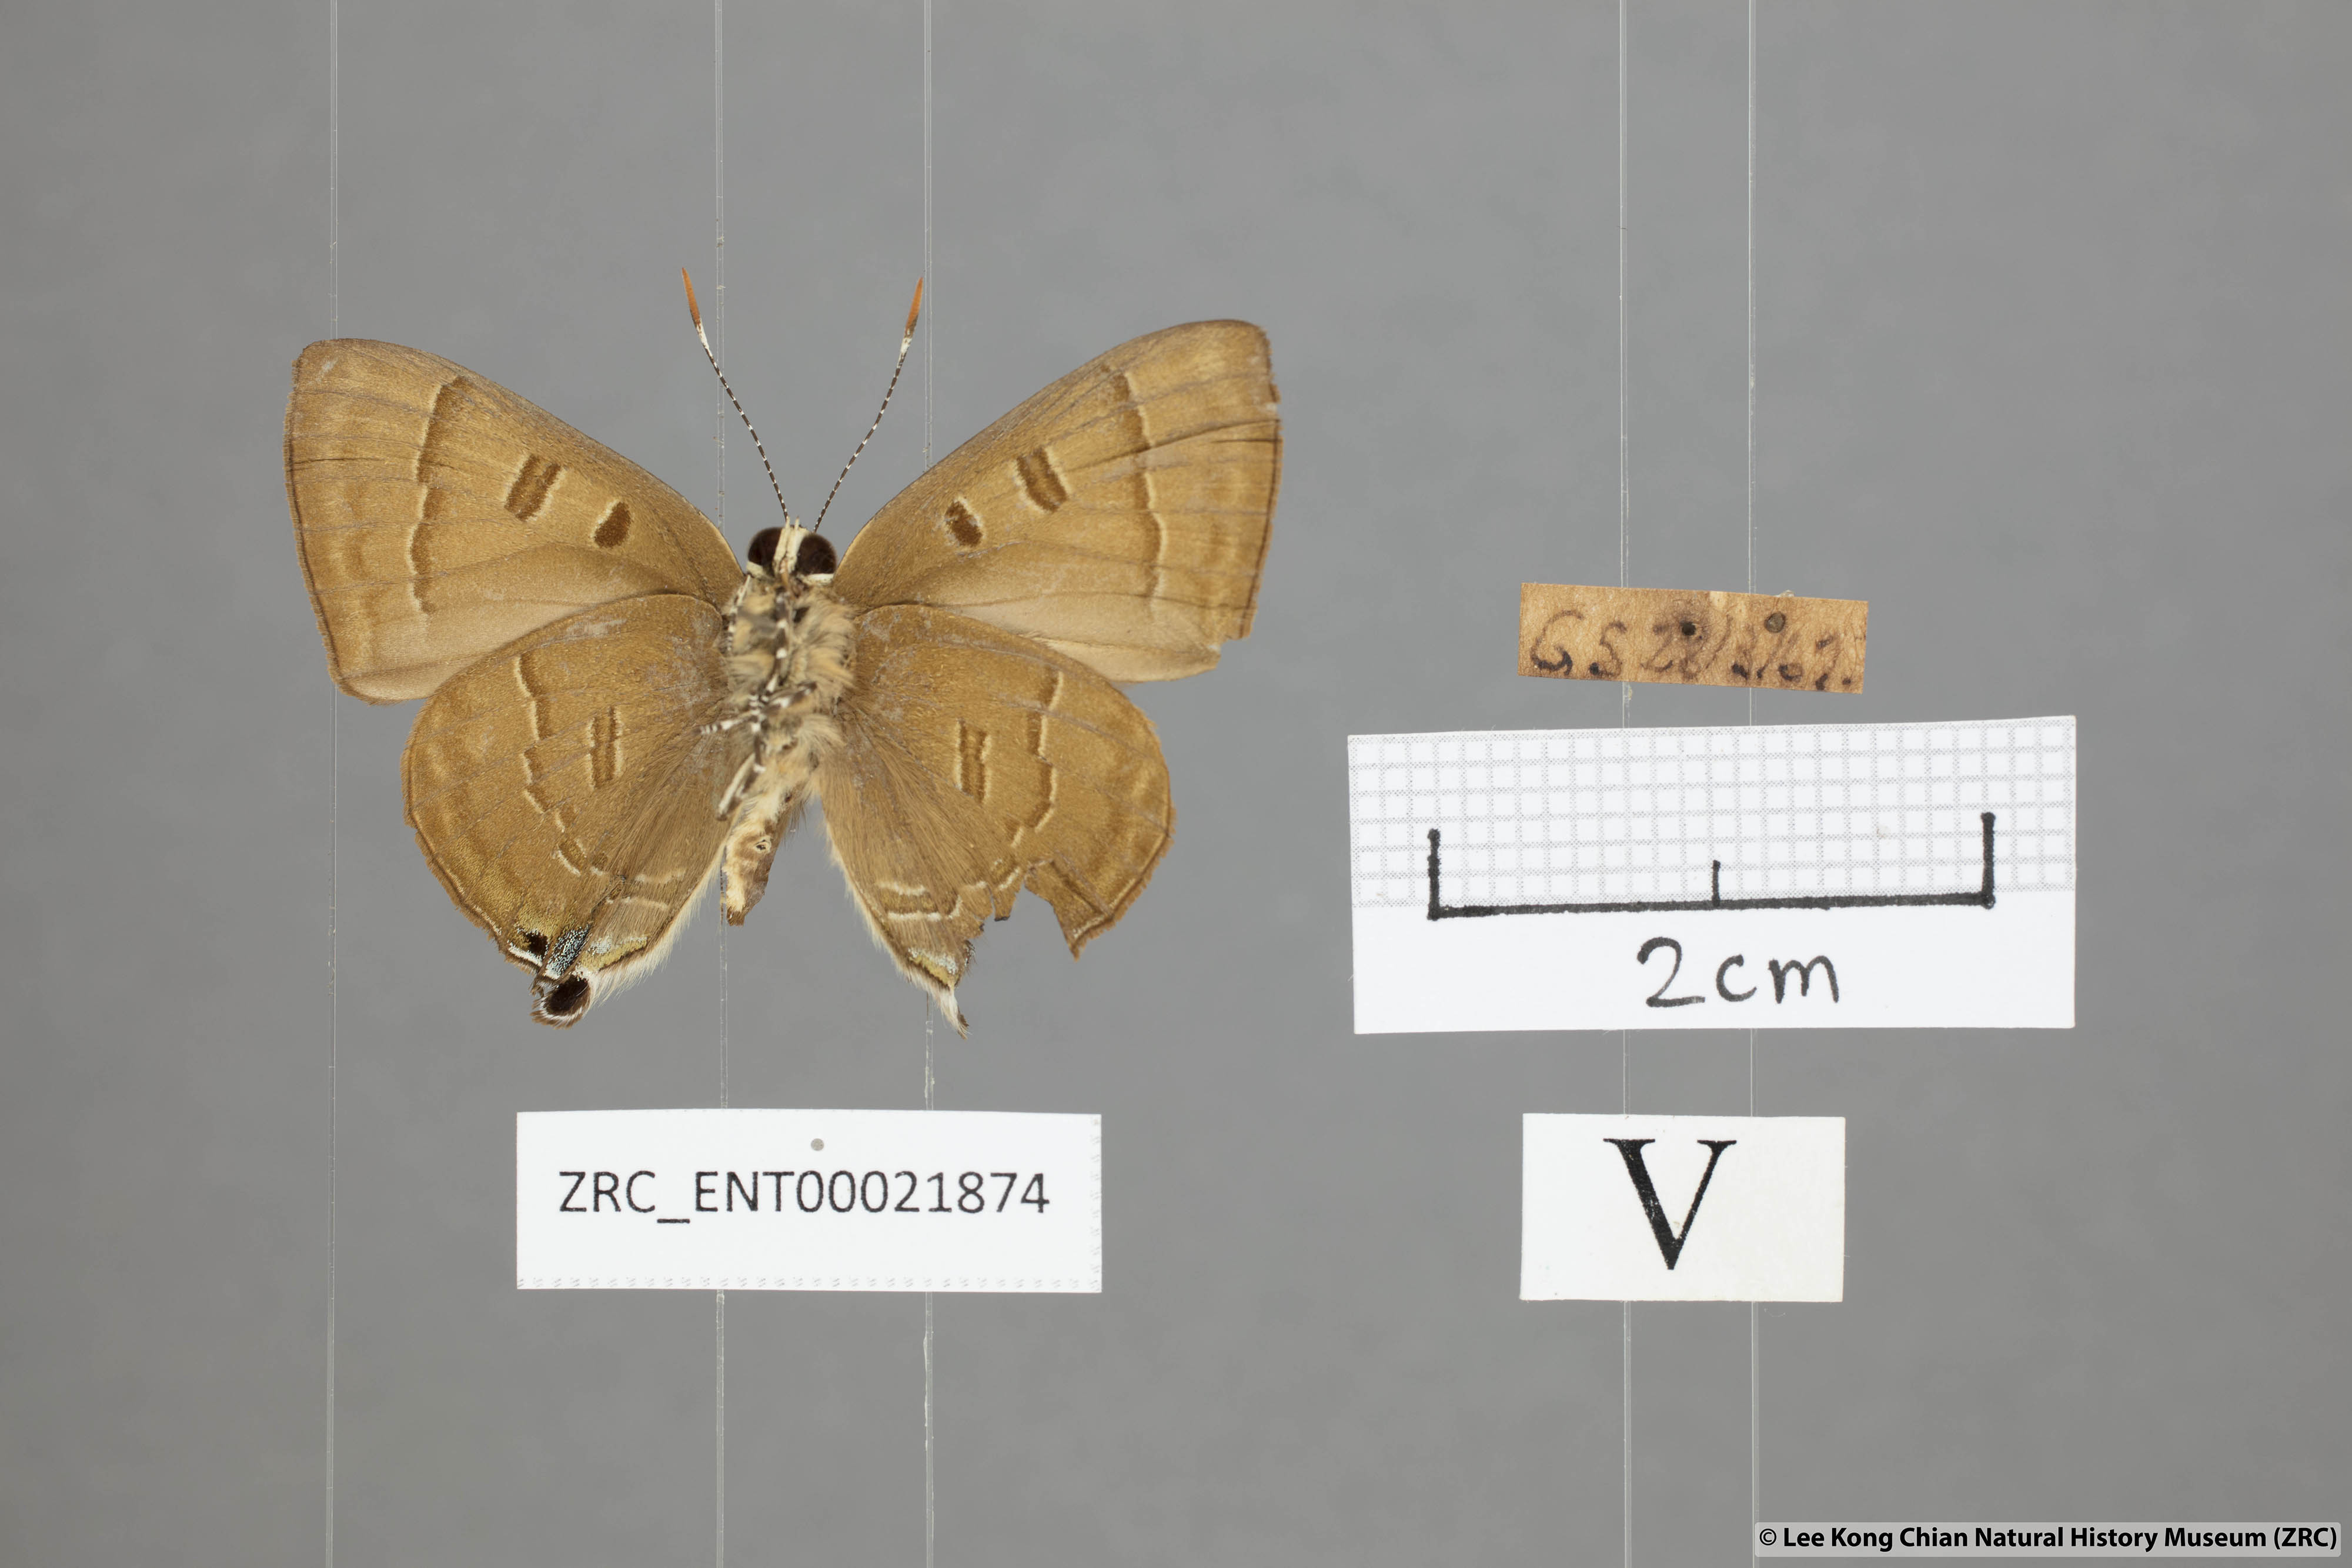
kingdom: Animalia
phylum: Arthropoda
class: Insecta
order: Lepidoptera
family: Lycaenidae
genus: Rapala
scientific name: Rapala pheretima
